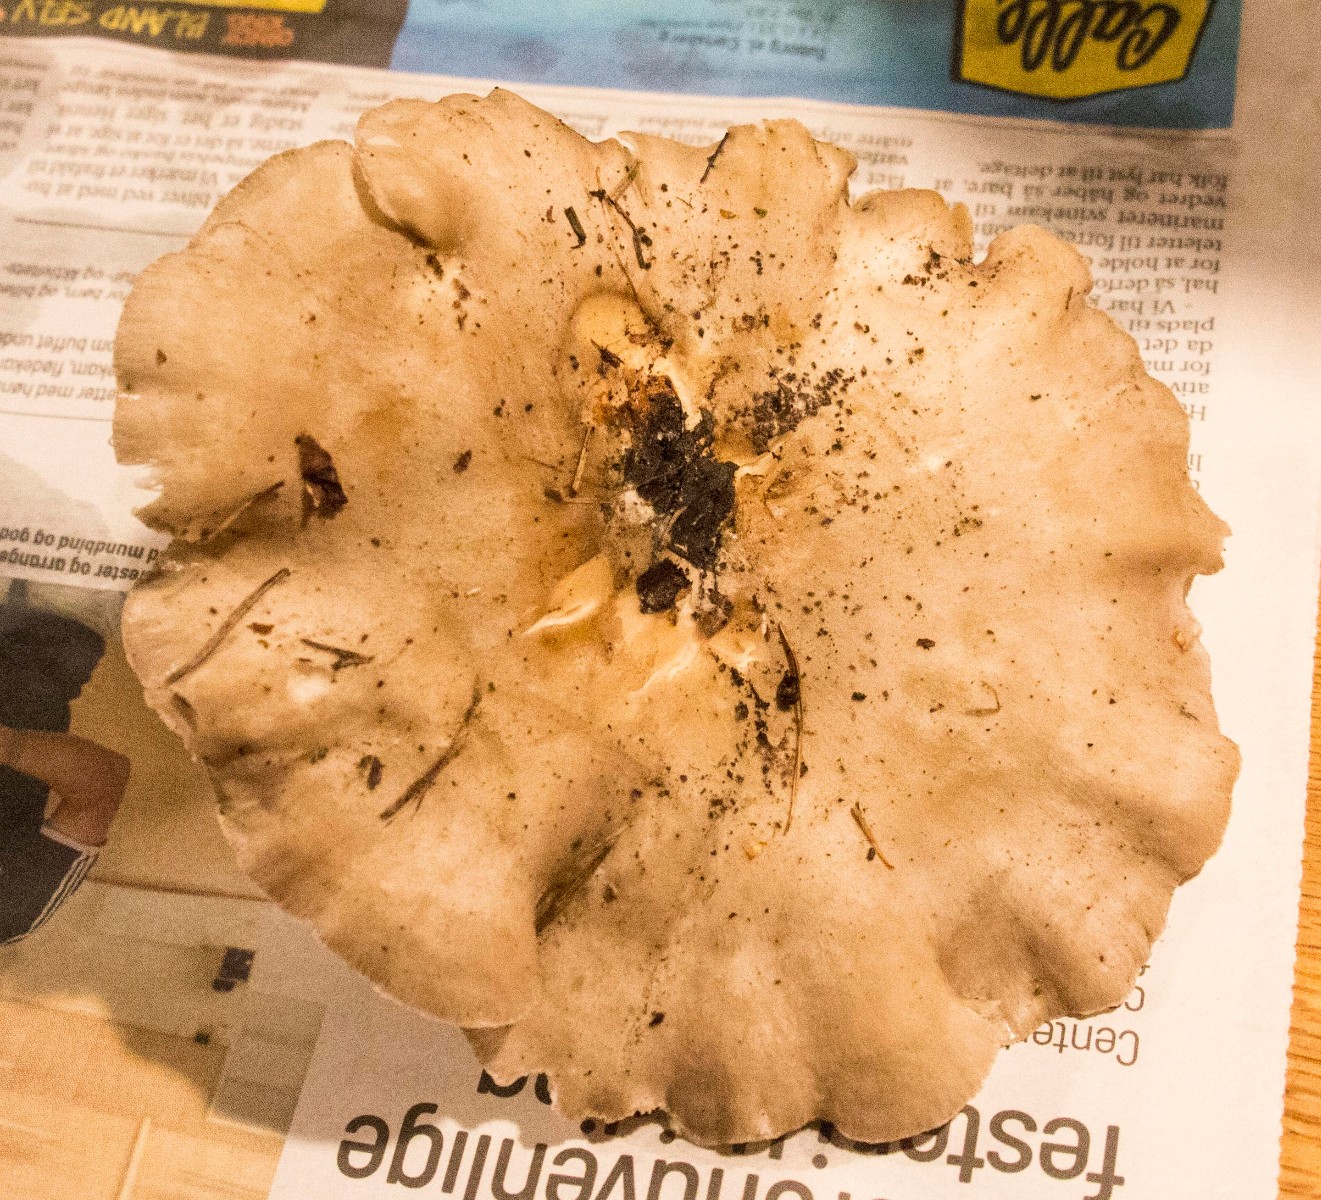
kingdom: Fungi
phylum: Basidiomycota
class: Agaricomycetes
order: Boletales
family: Paxillaceae
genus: Paxillus
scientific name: Paxillus involutus
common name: almindelig netbladhat
